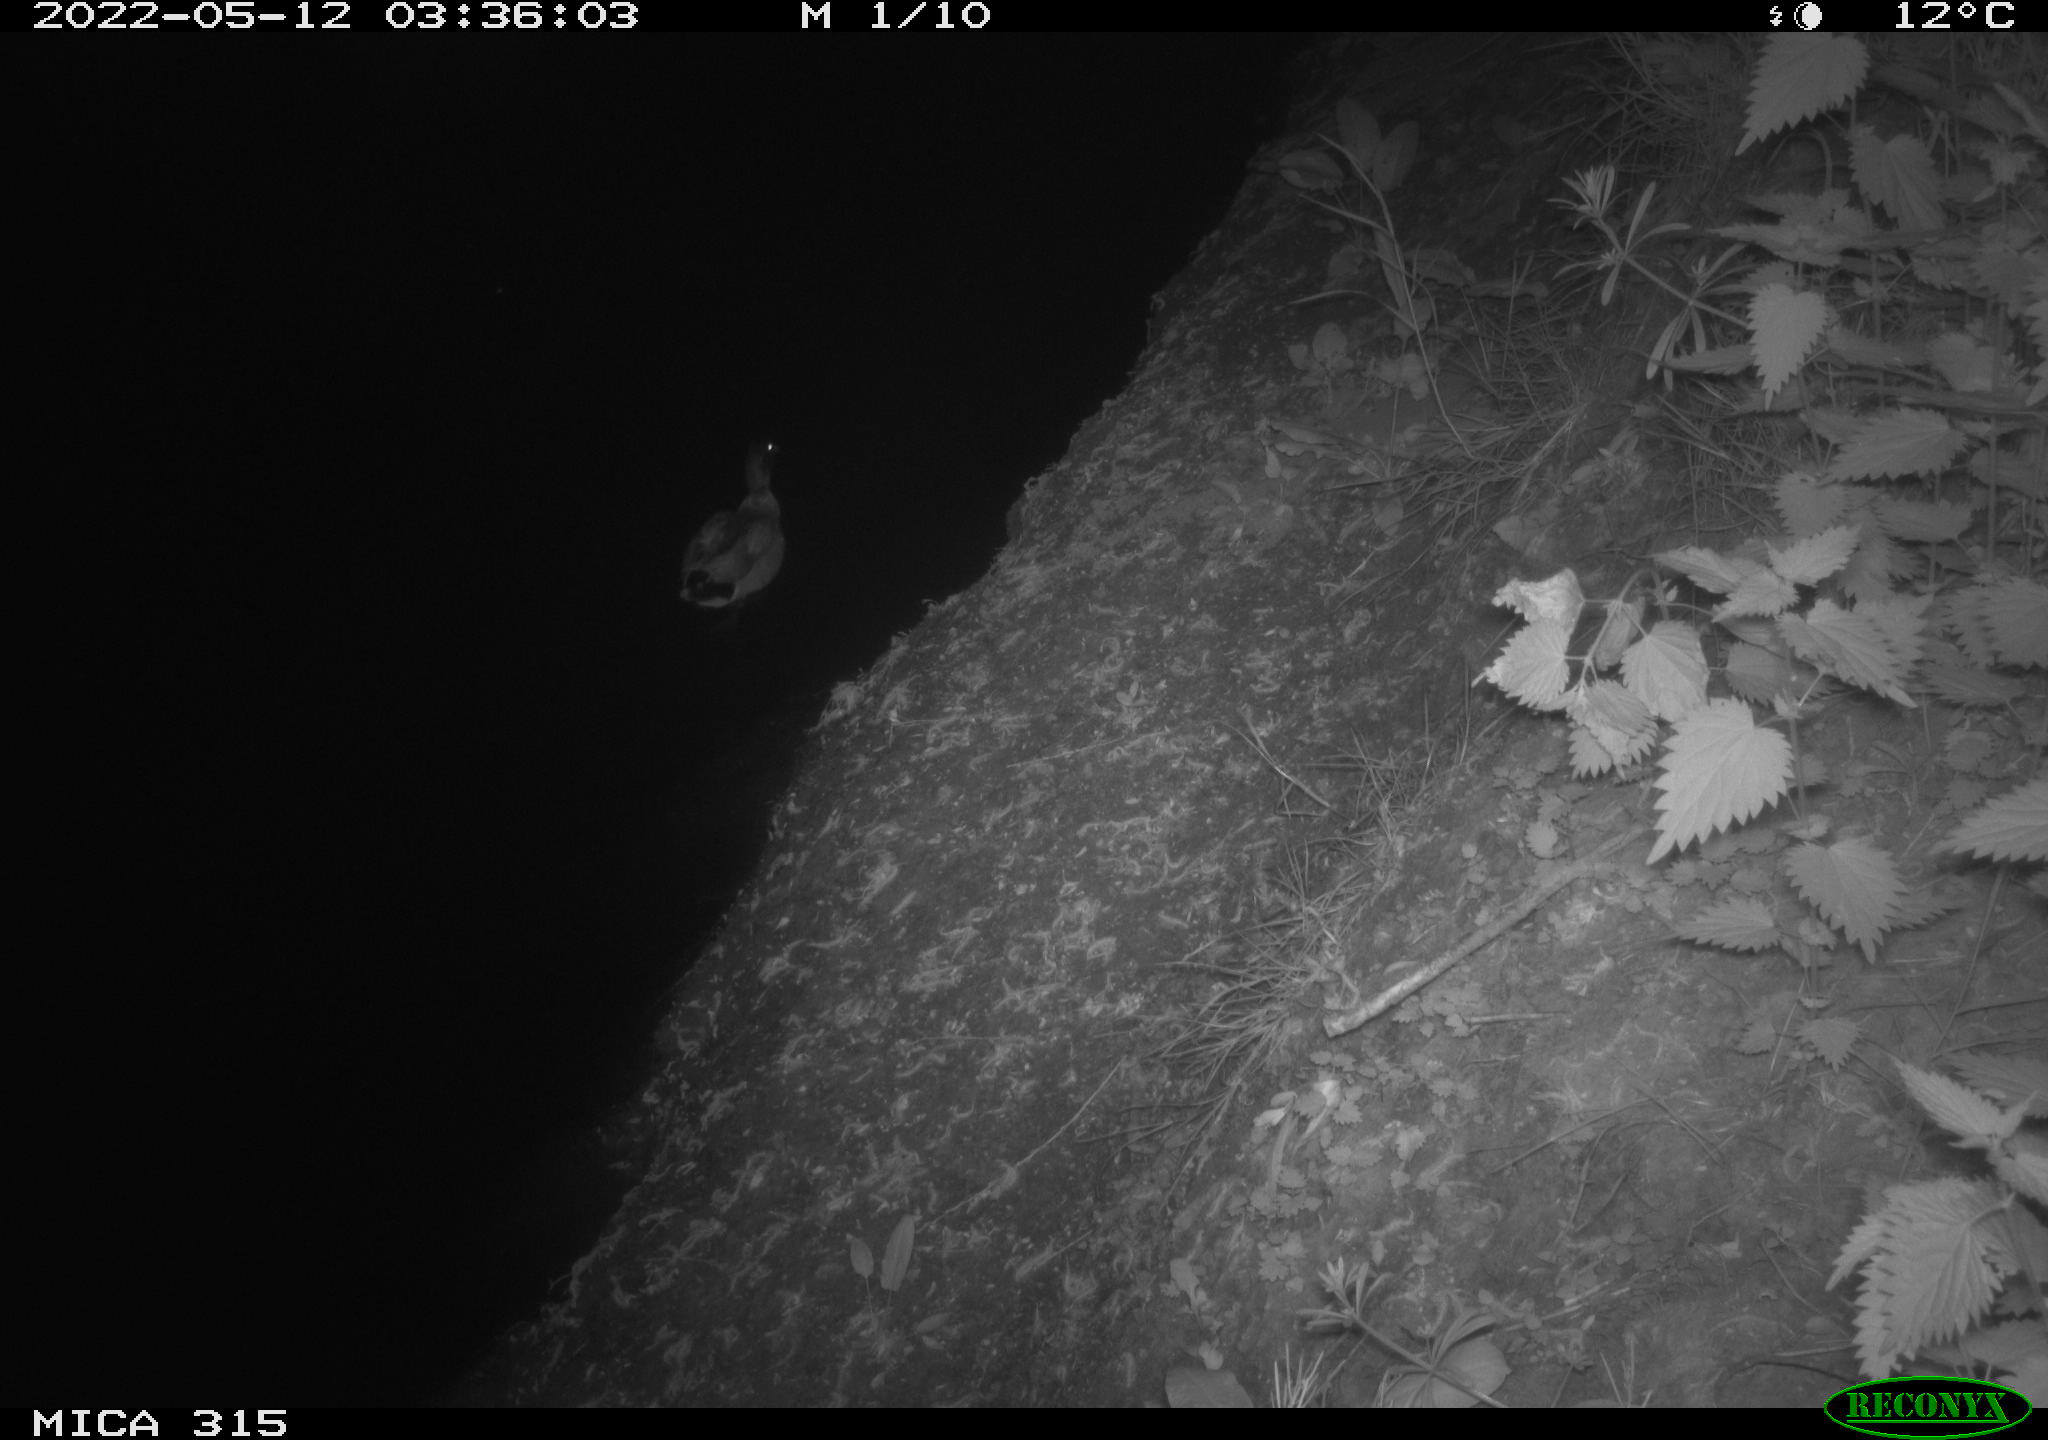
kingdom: Animalia
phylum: Chordata
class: Aves
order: Anseriformes
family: Anatidae
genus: Anas
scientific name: Anas
